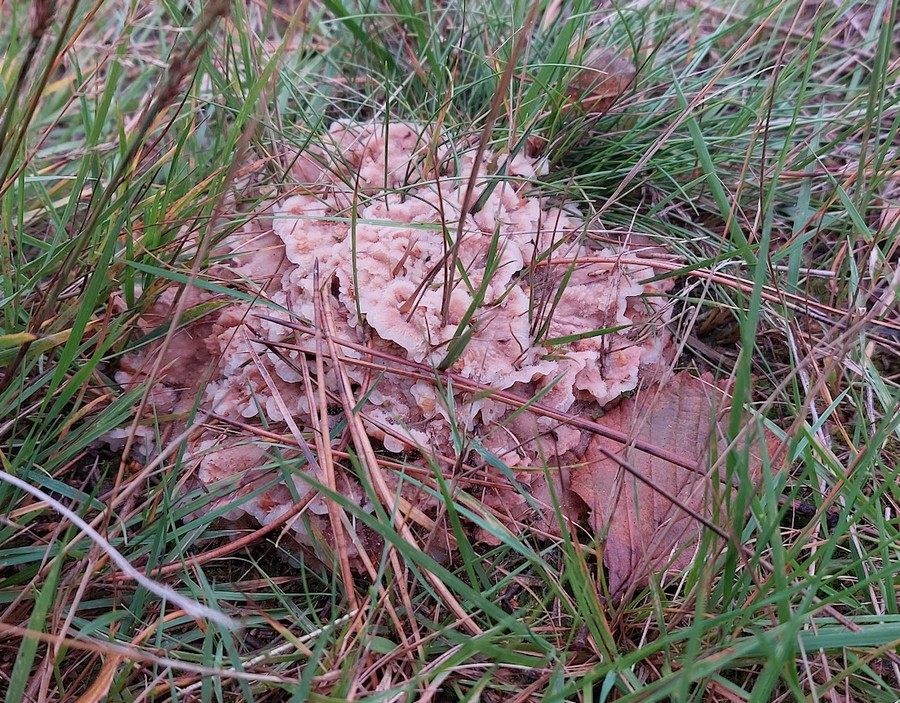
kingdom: Fungi
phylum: Basidiomycota
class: Agaricomycetes
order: Polyporales
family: Meruliaceae
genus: Phlebia
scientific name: Phlebia tremellosa
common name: bævrende åresvamp
